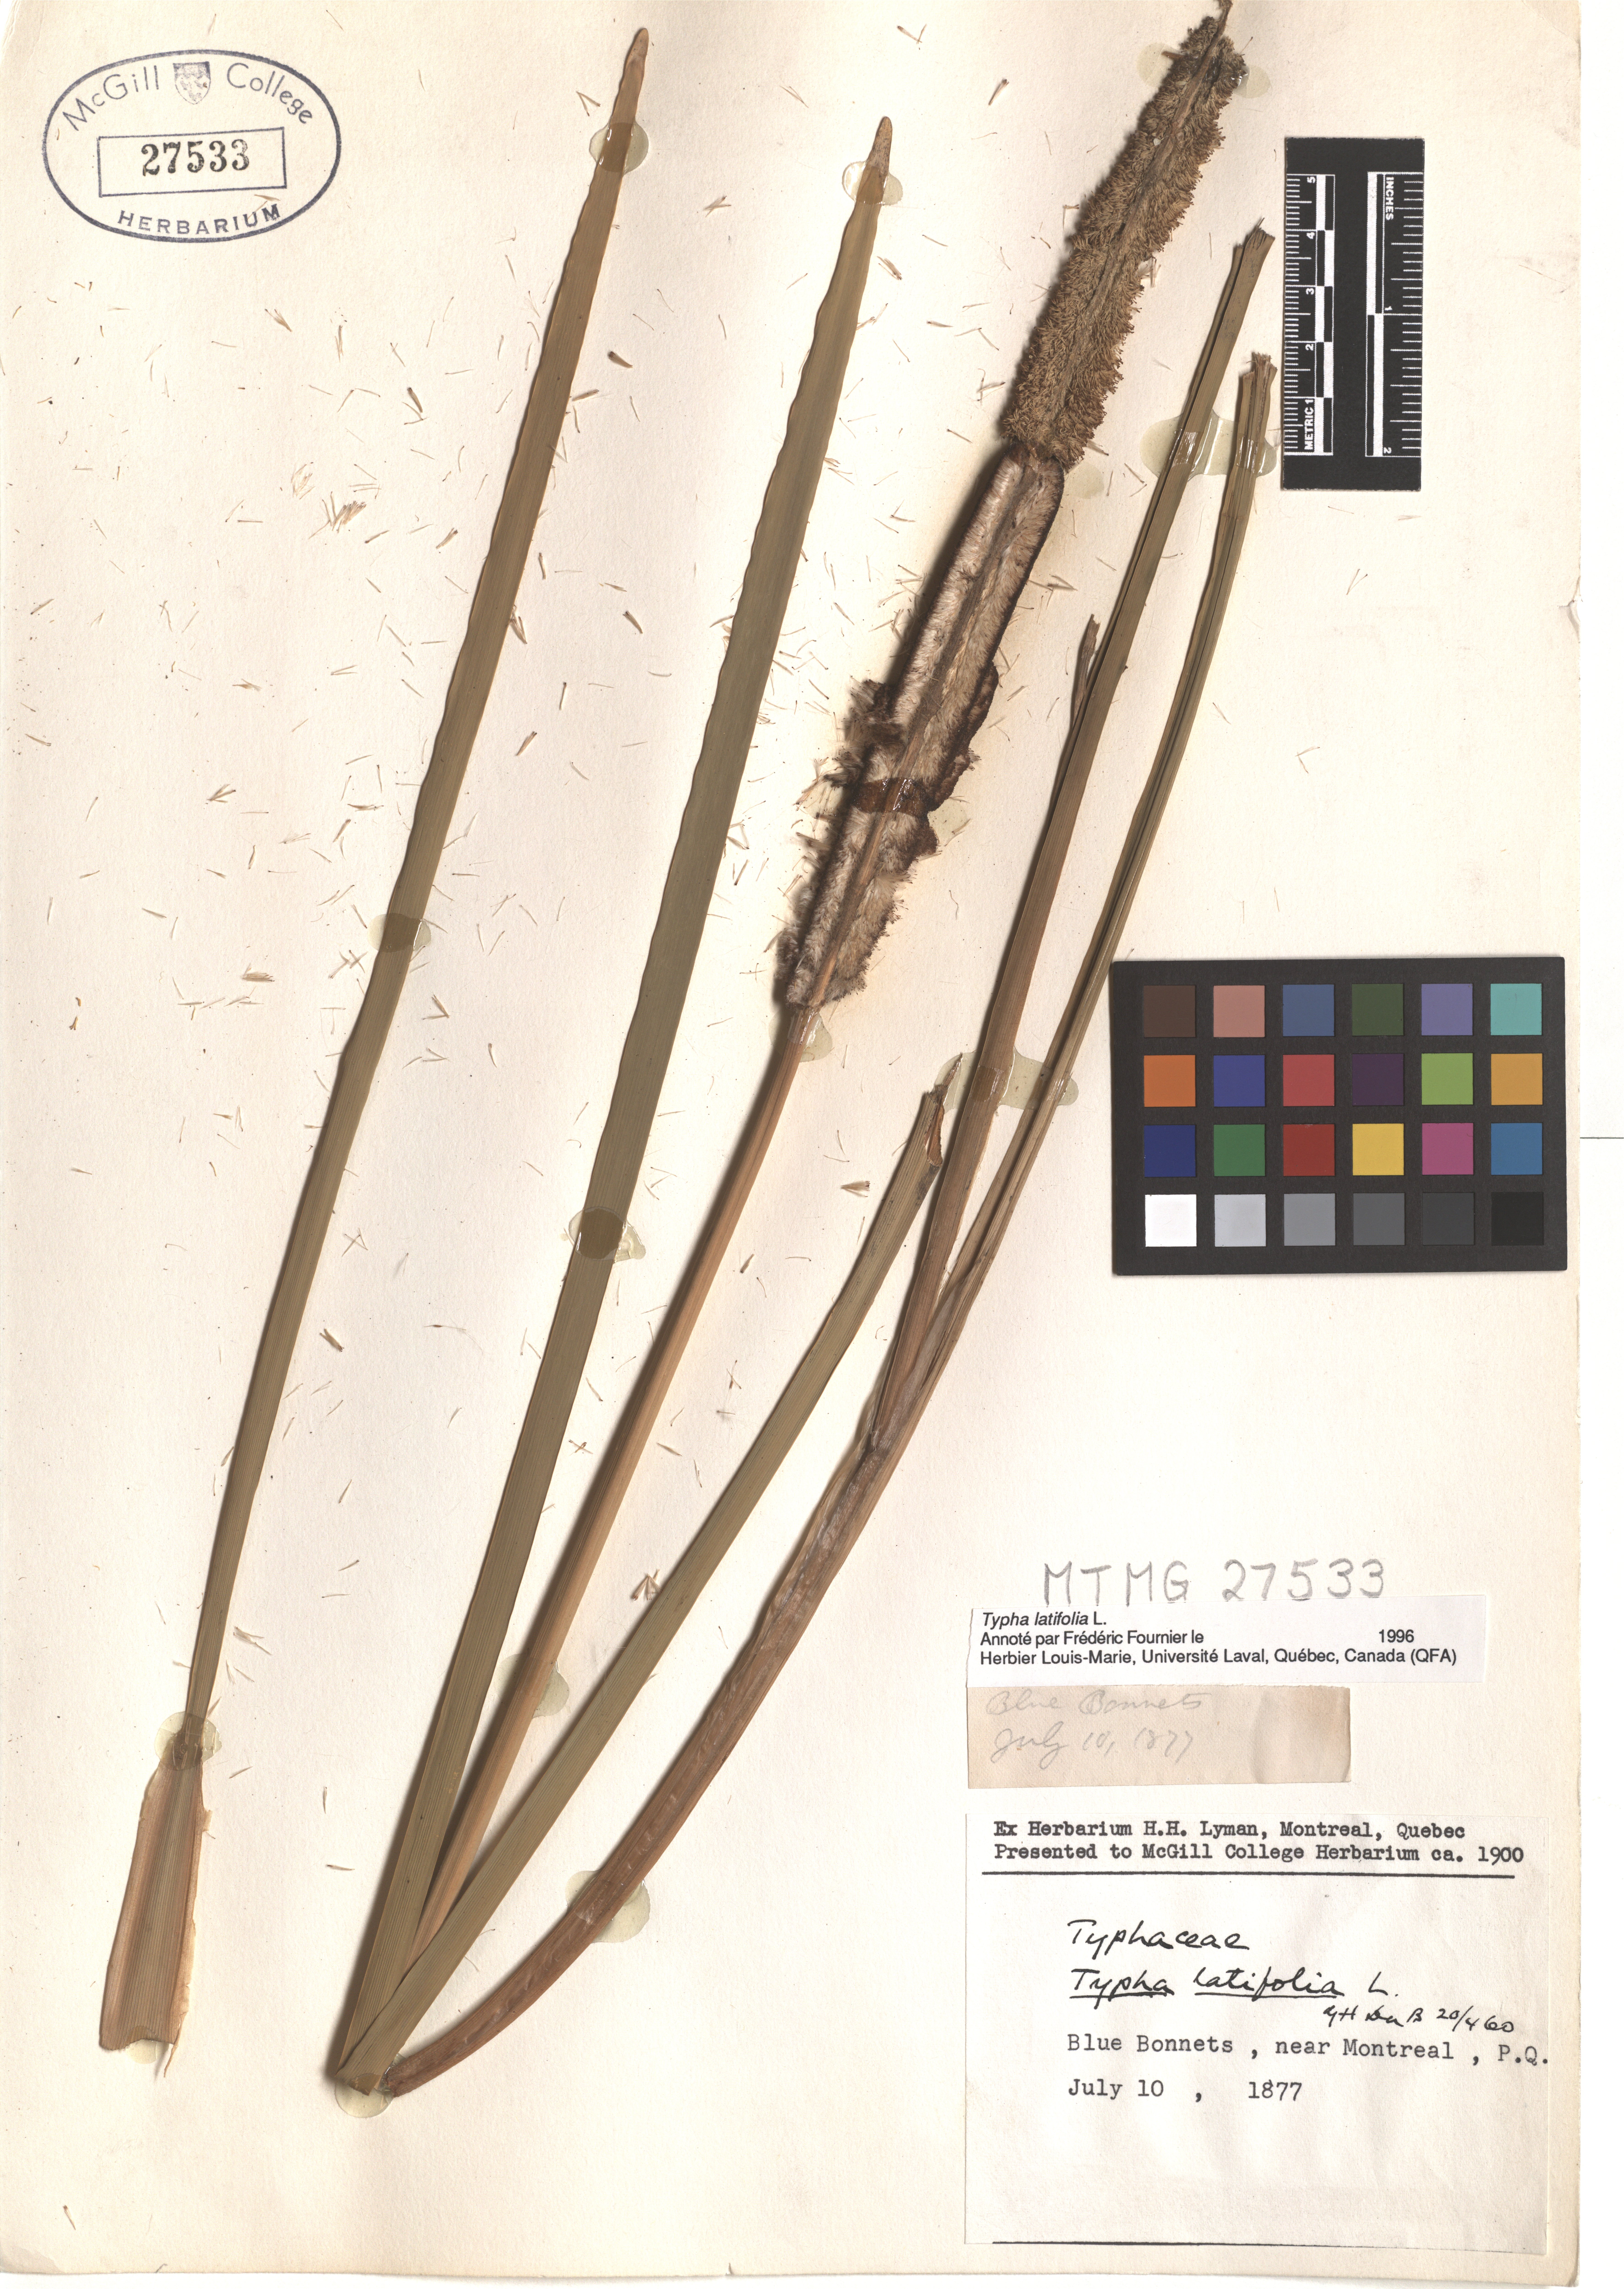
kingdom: Plantae
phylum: Tracheophyta
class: Liliopsida
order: Poales
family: Typhaceae
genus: Typha
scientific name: Typha latifolia
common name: Broadleaf cattail
